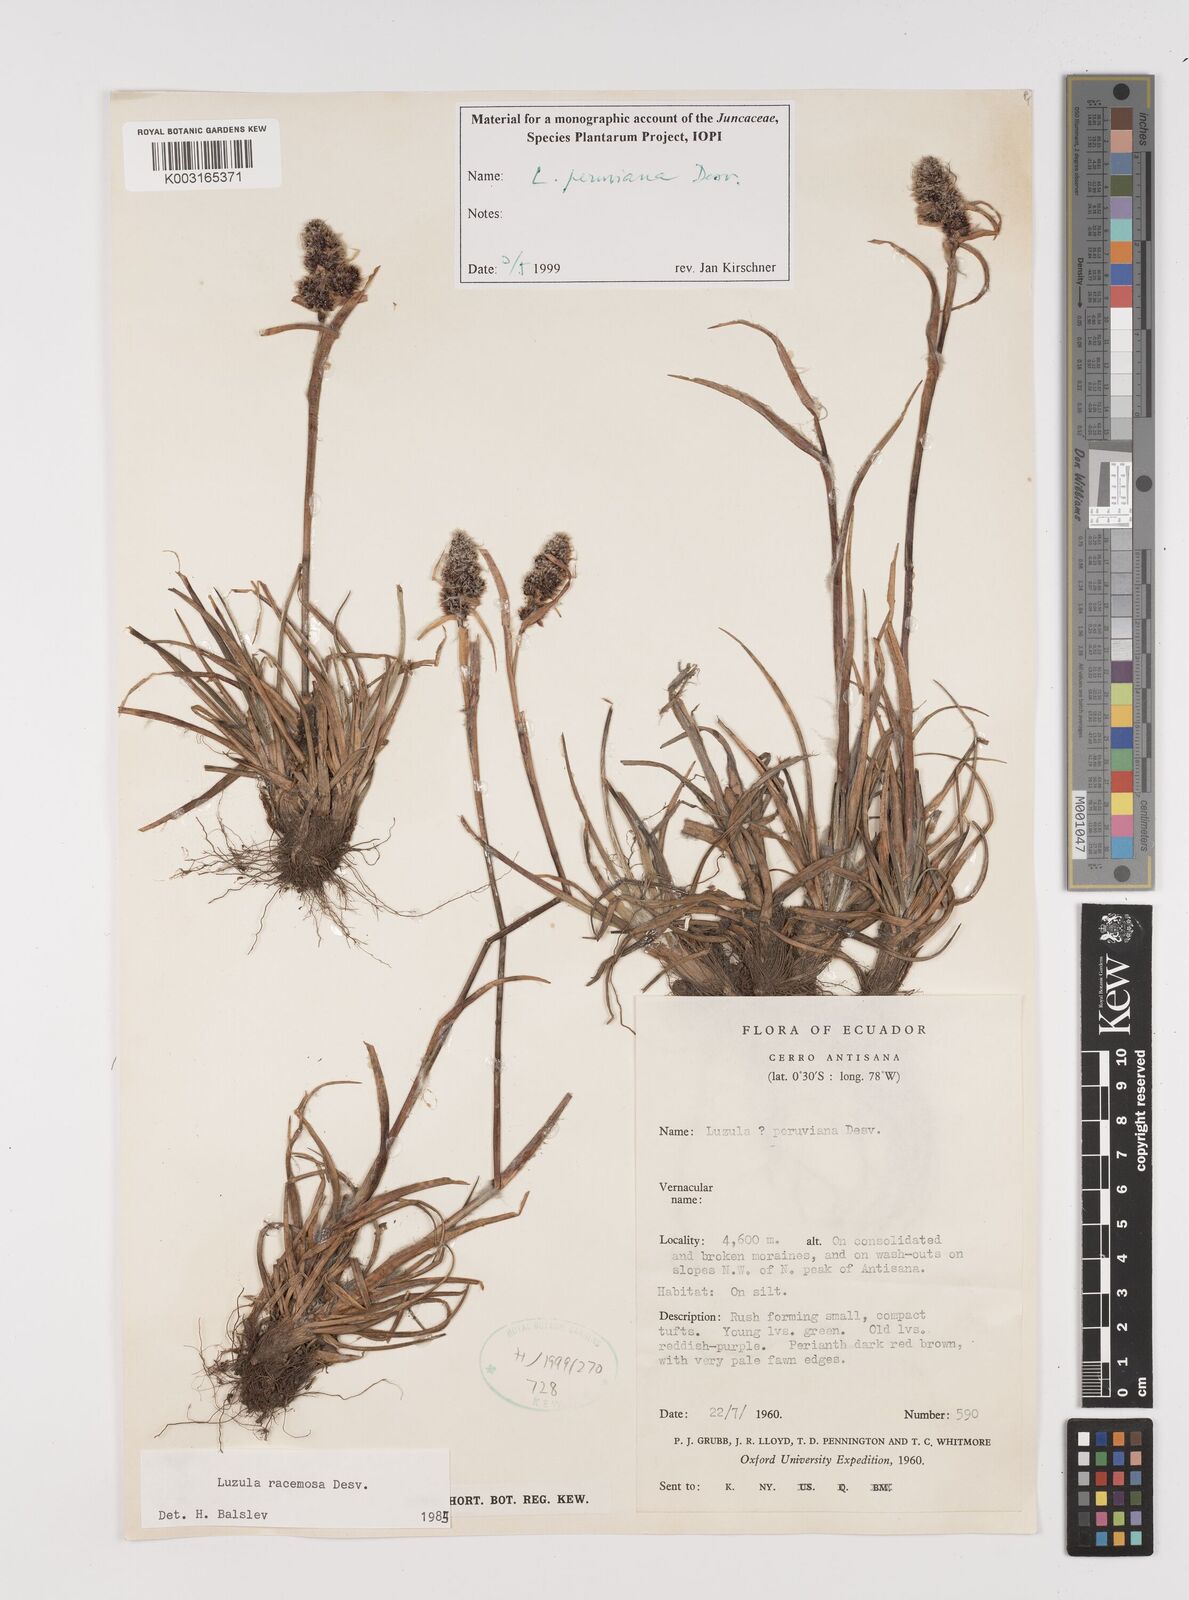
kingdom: Plantae
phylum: Tracheophyta
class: Liliopsida
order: Poales
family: Juncaceae
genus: Luzula
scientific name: Luzula peruviana
